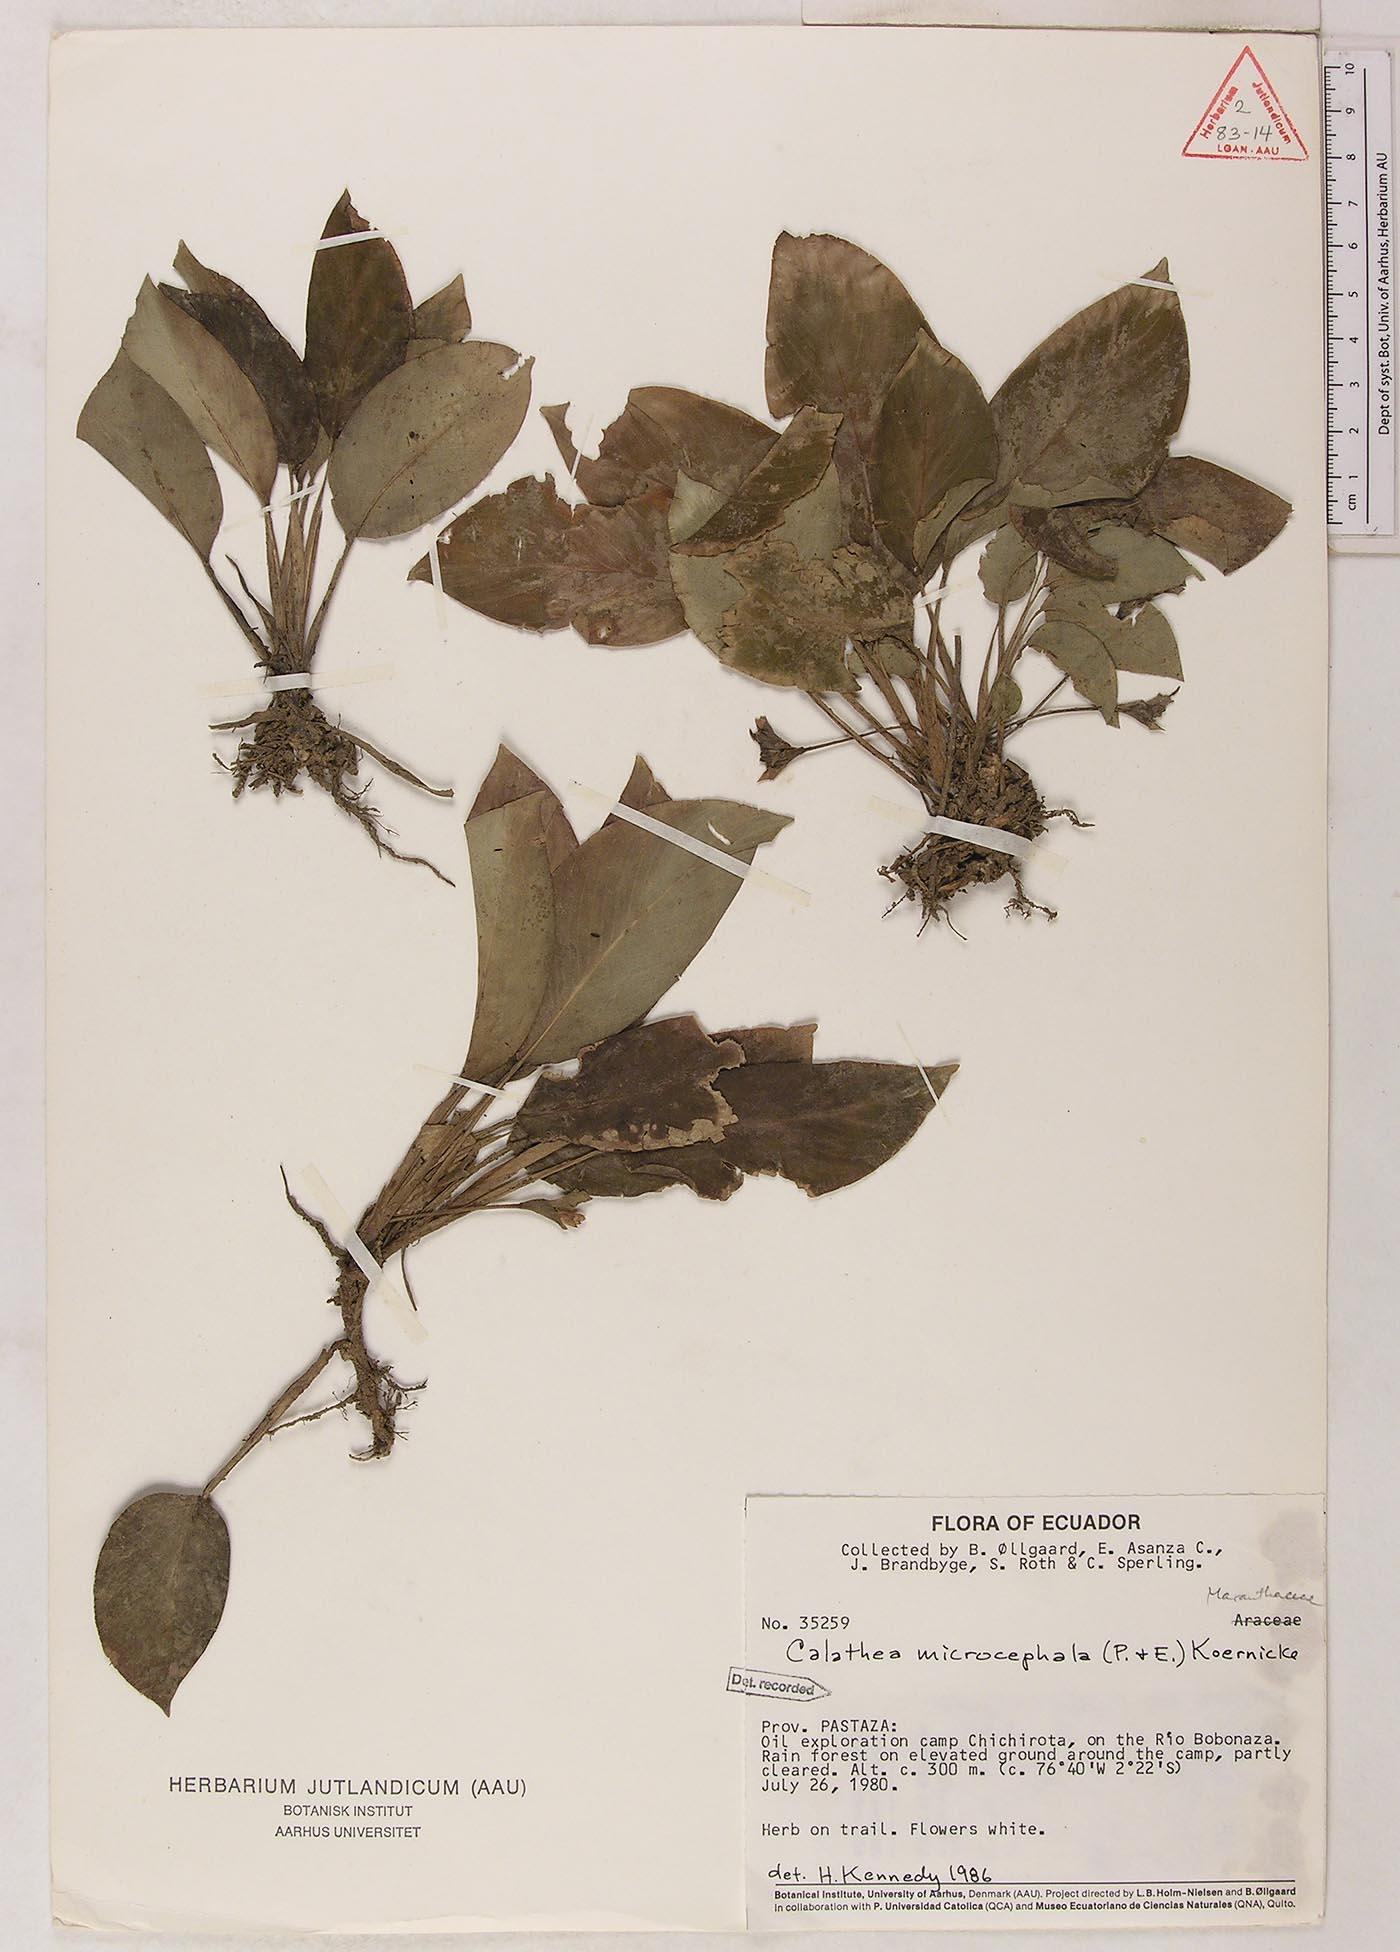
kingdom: Plantae
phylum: Tracheophyta
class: Liliopsida
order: Zingiberales
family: Marantaceae
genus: Goeppertia
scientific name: Goeppertia microcephala
